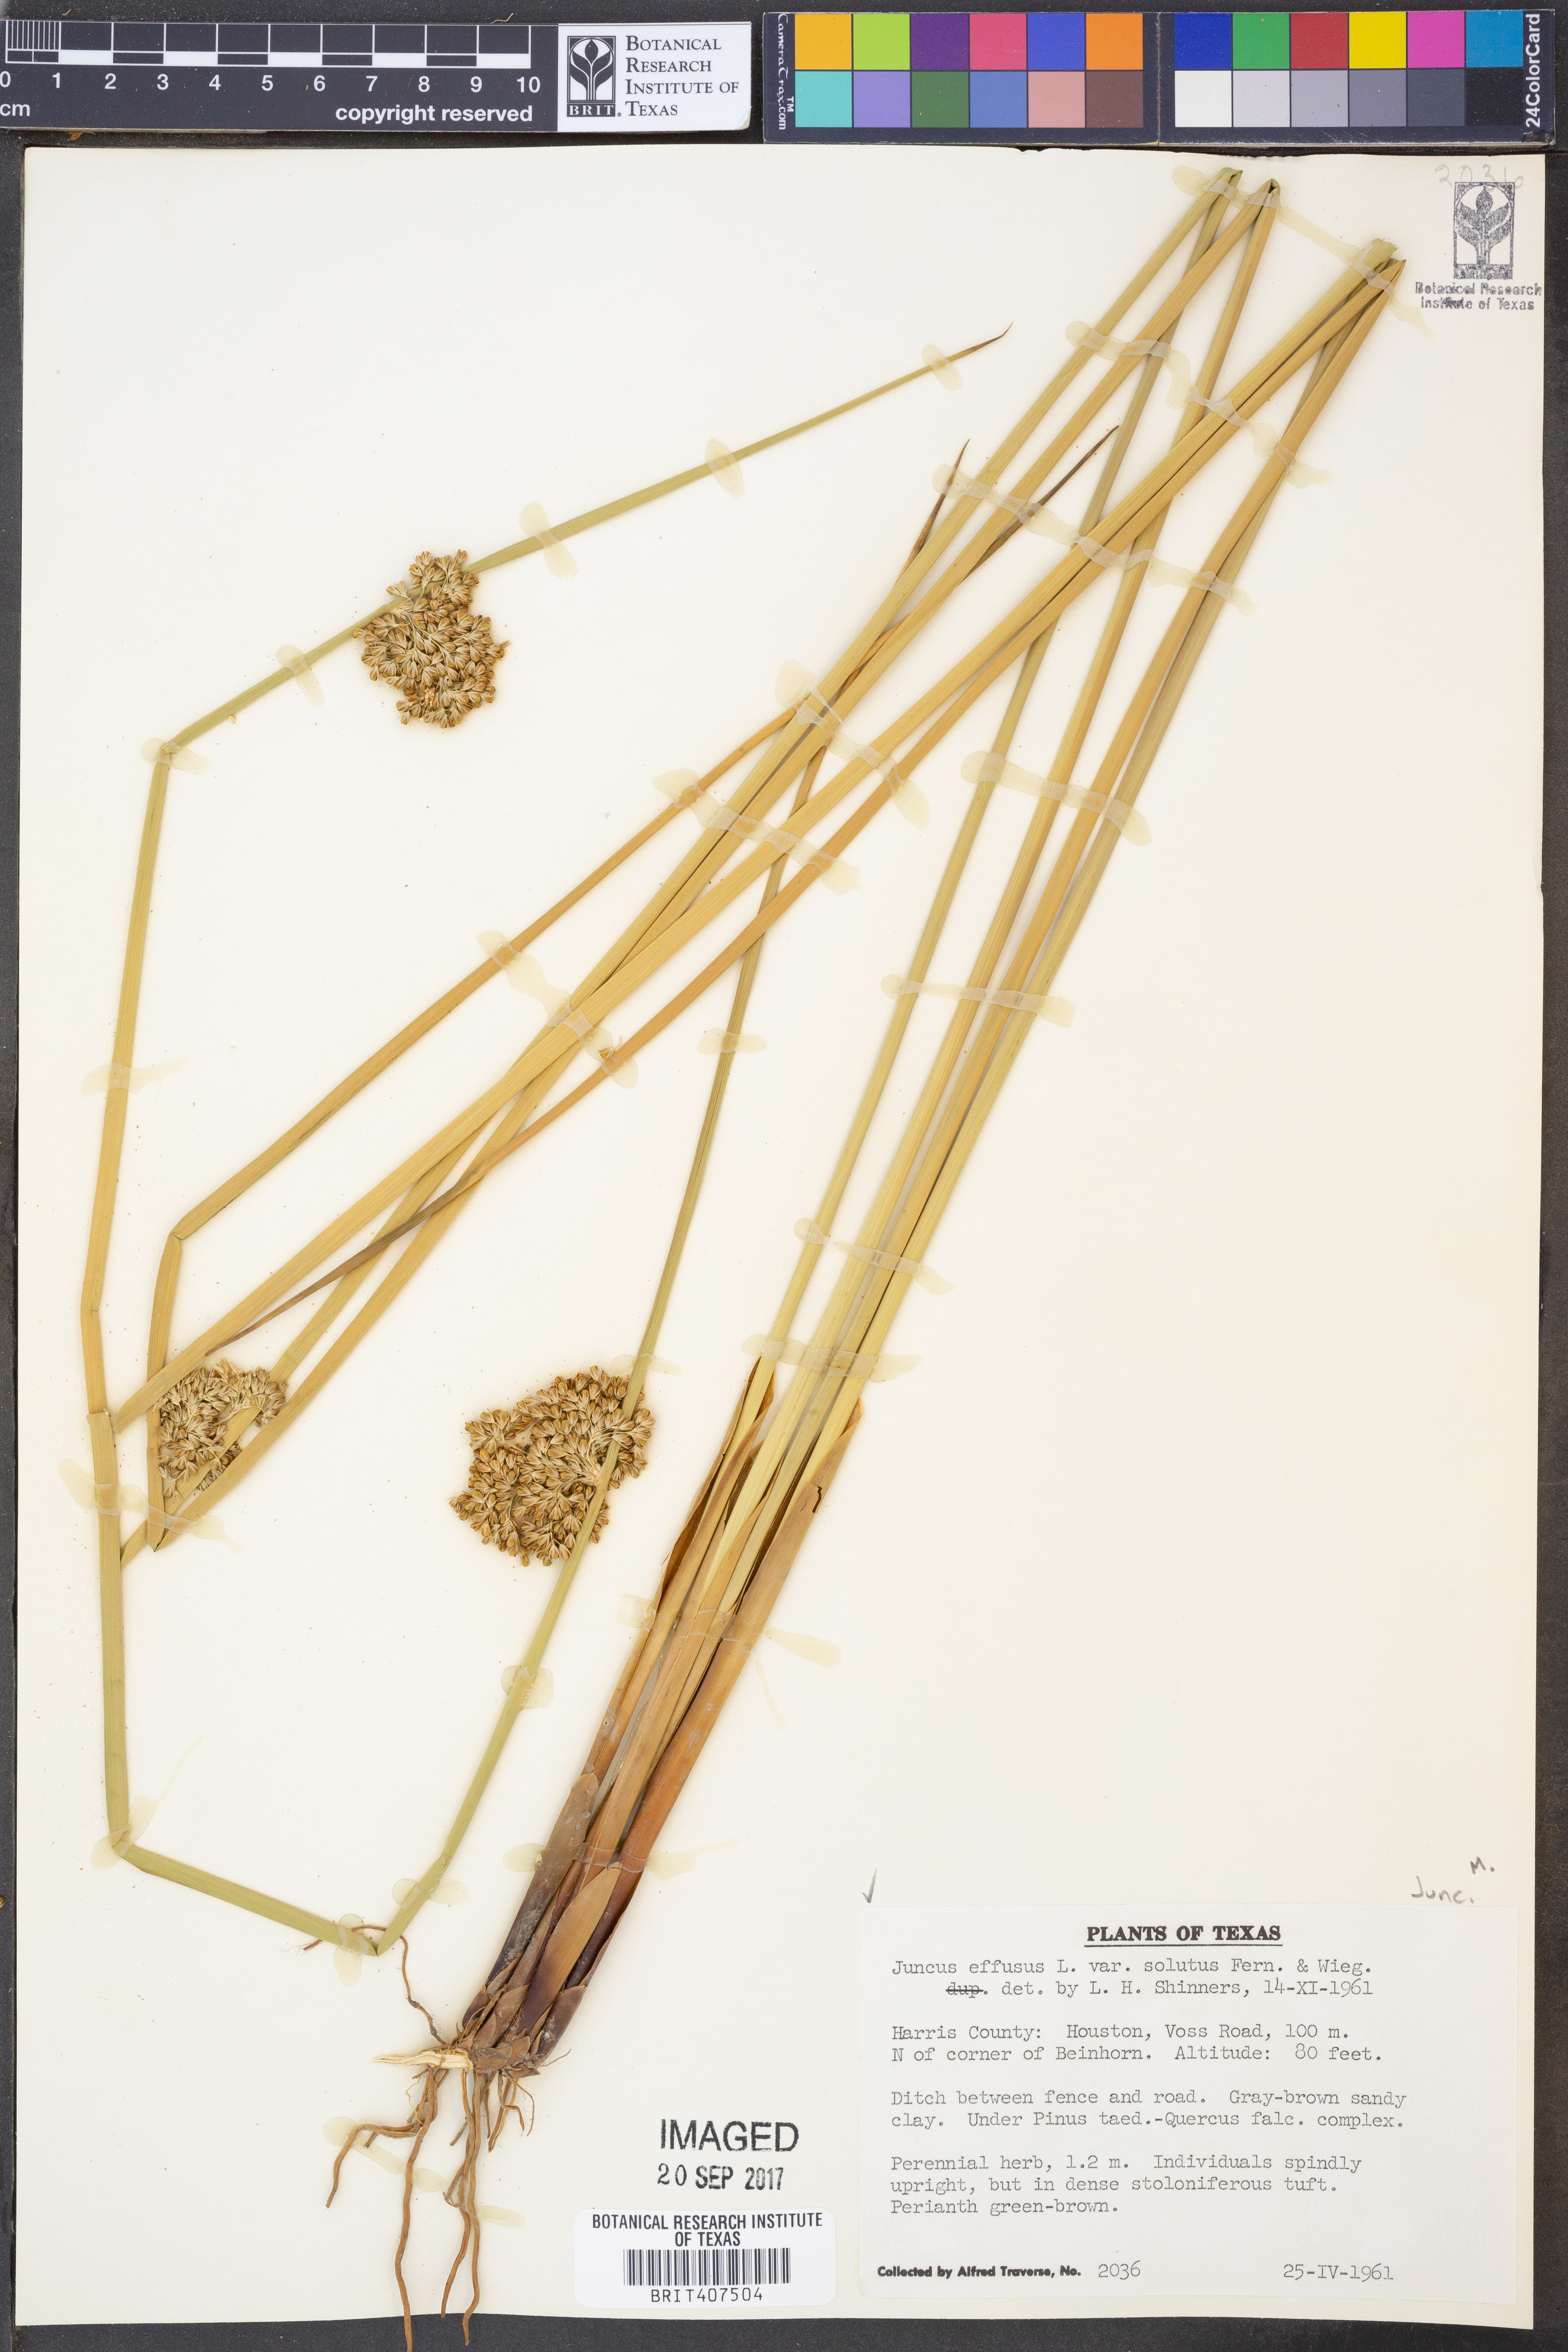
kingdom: Plantae
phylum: Tracheophyta
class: Liliopsida
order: Poales
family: Juncaceae
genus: Juncus
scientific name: Juncus effusus
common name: Soft rush
